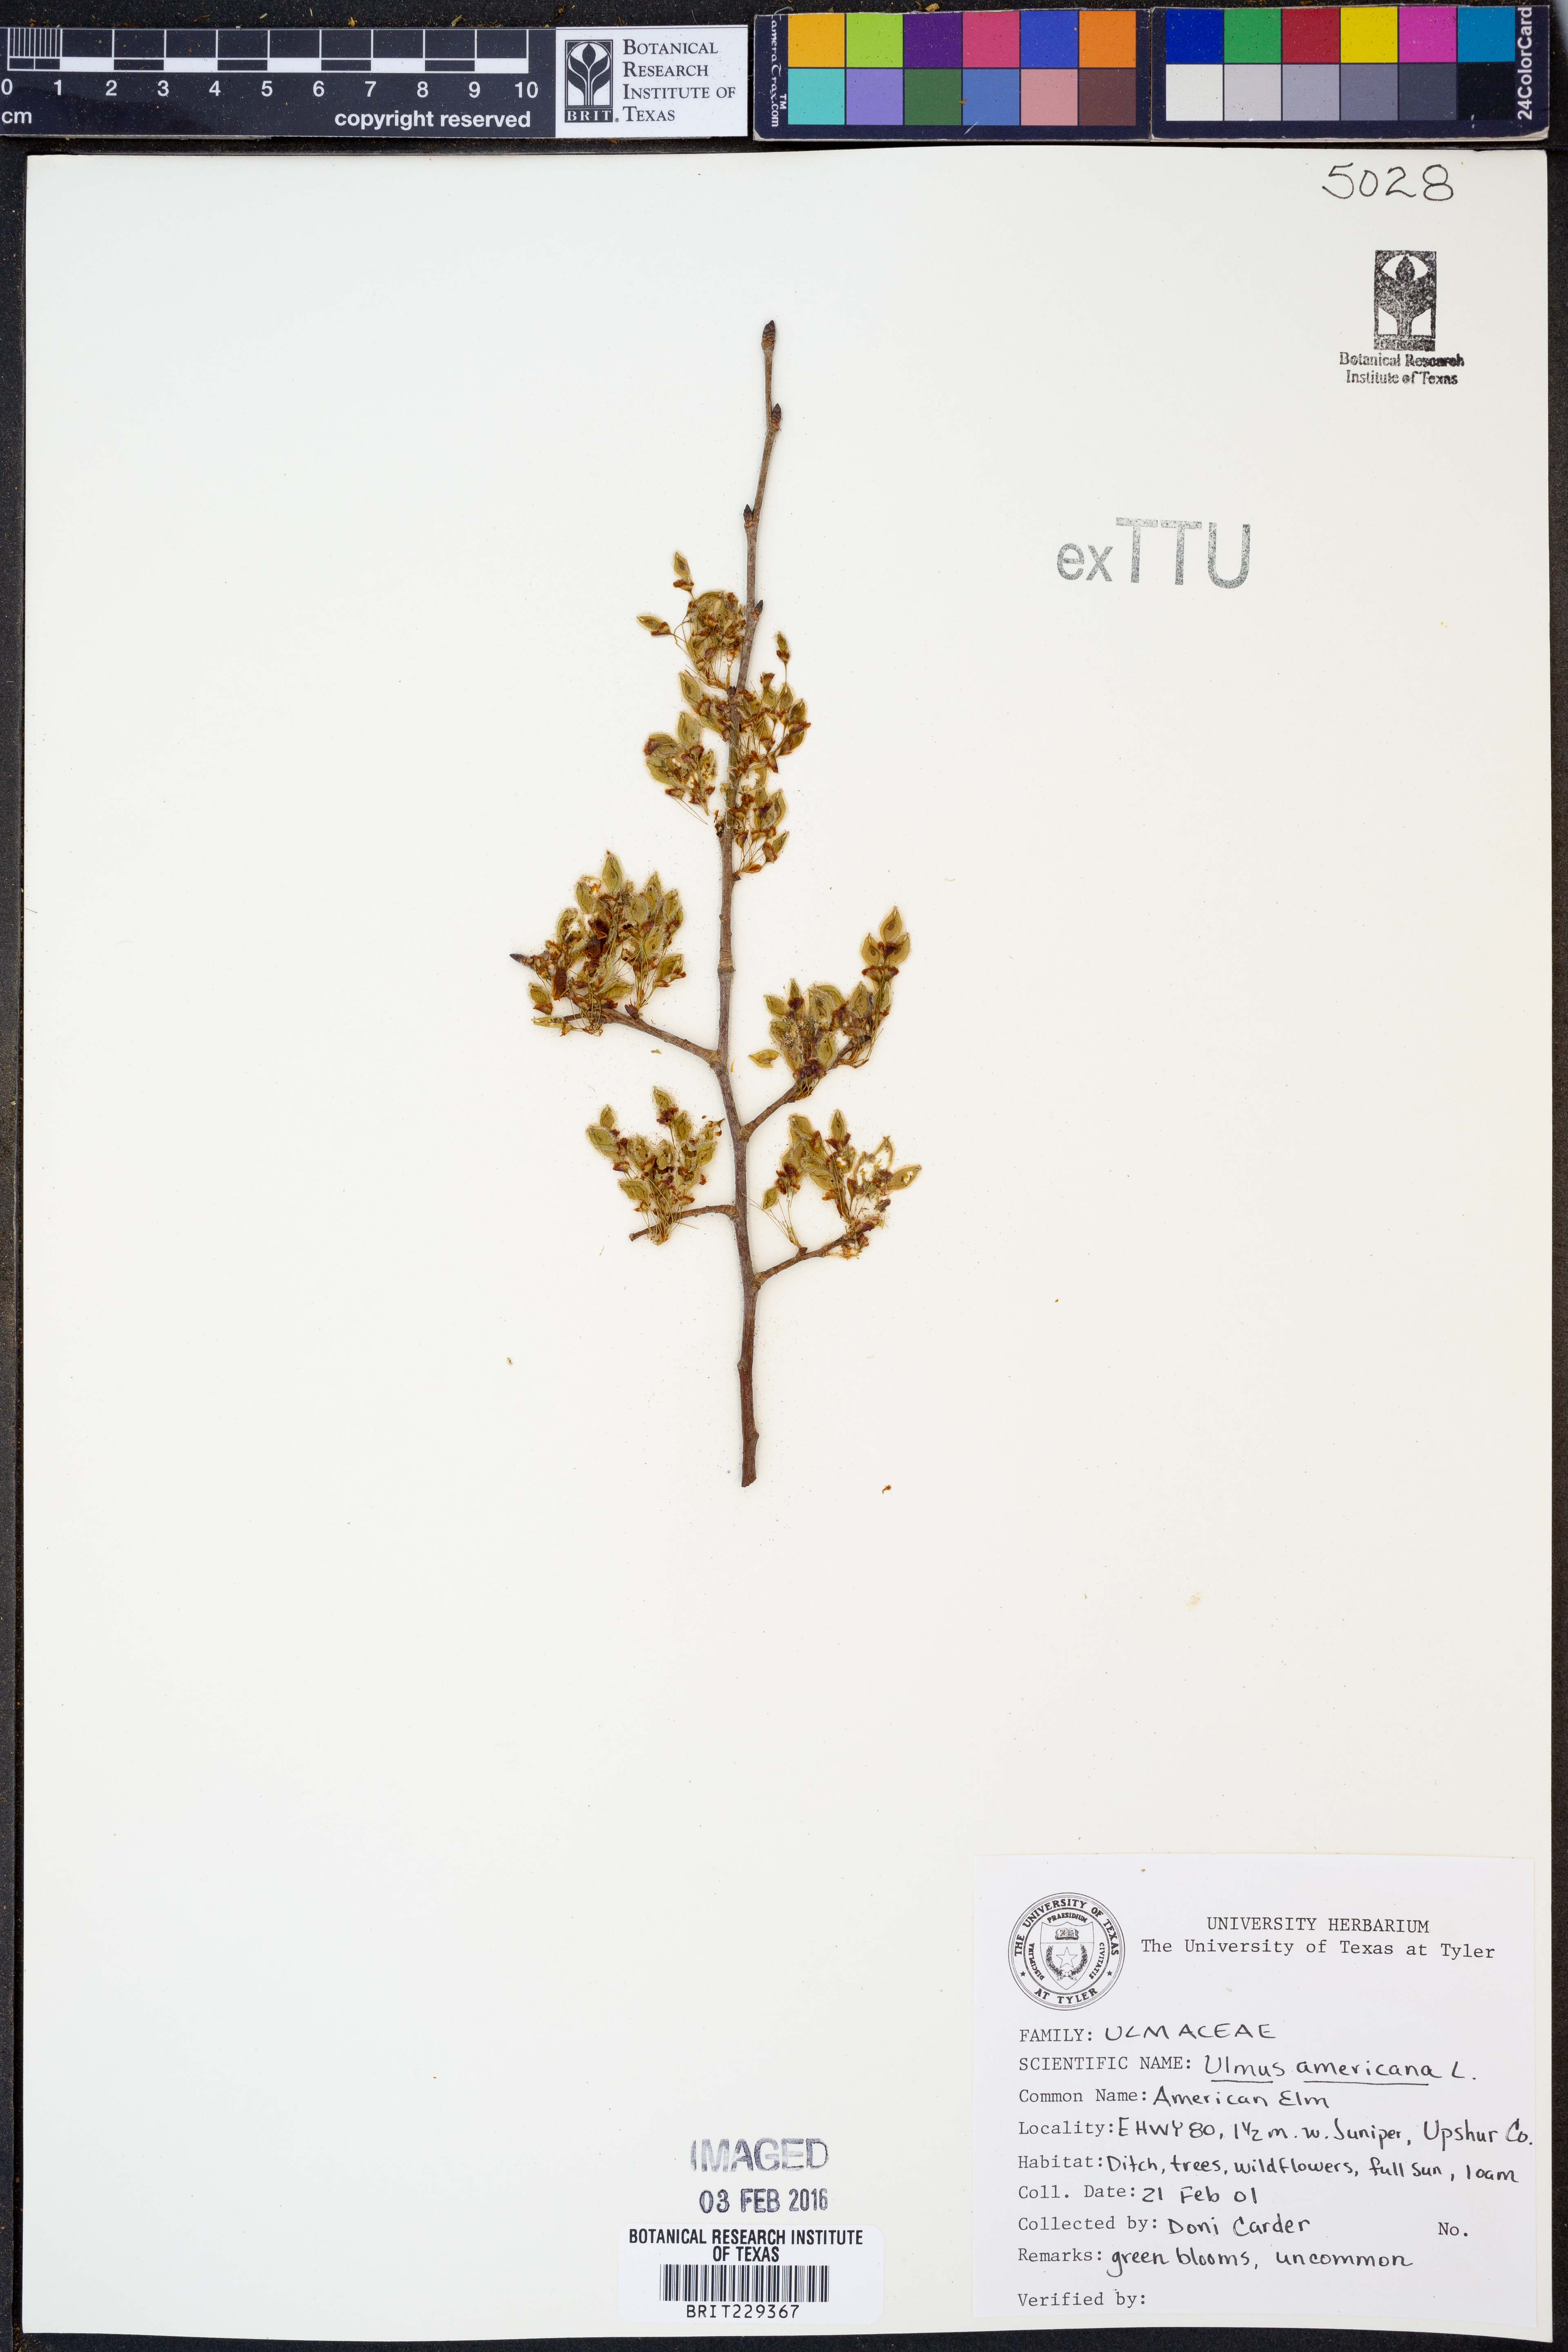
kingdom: Plantae
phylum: Tracheophyta
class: Magnoliopsida
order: Rosales
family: Ulmaceae
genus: Ulmus
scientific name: Ulmus americana
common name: American elm
